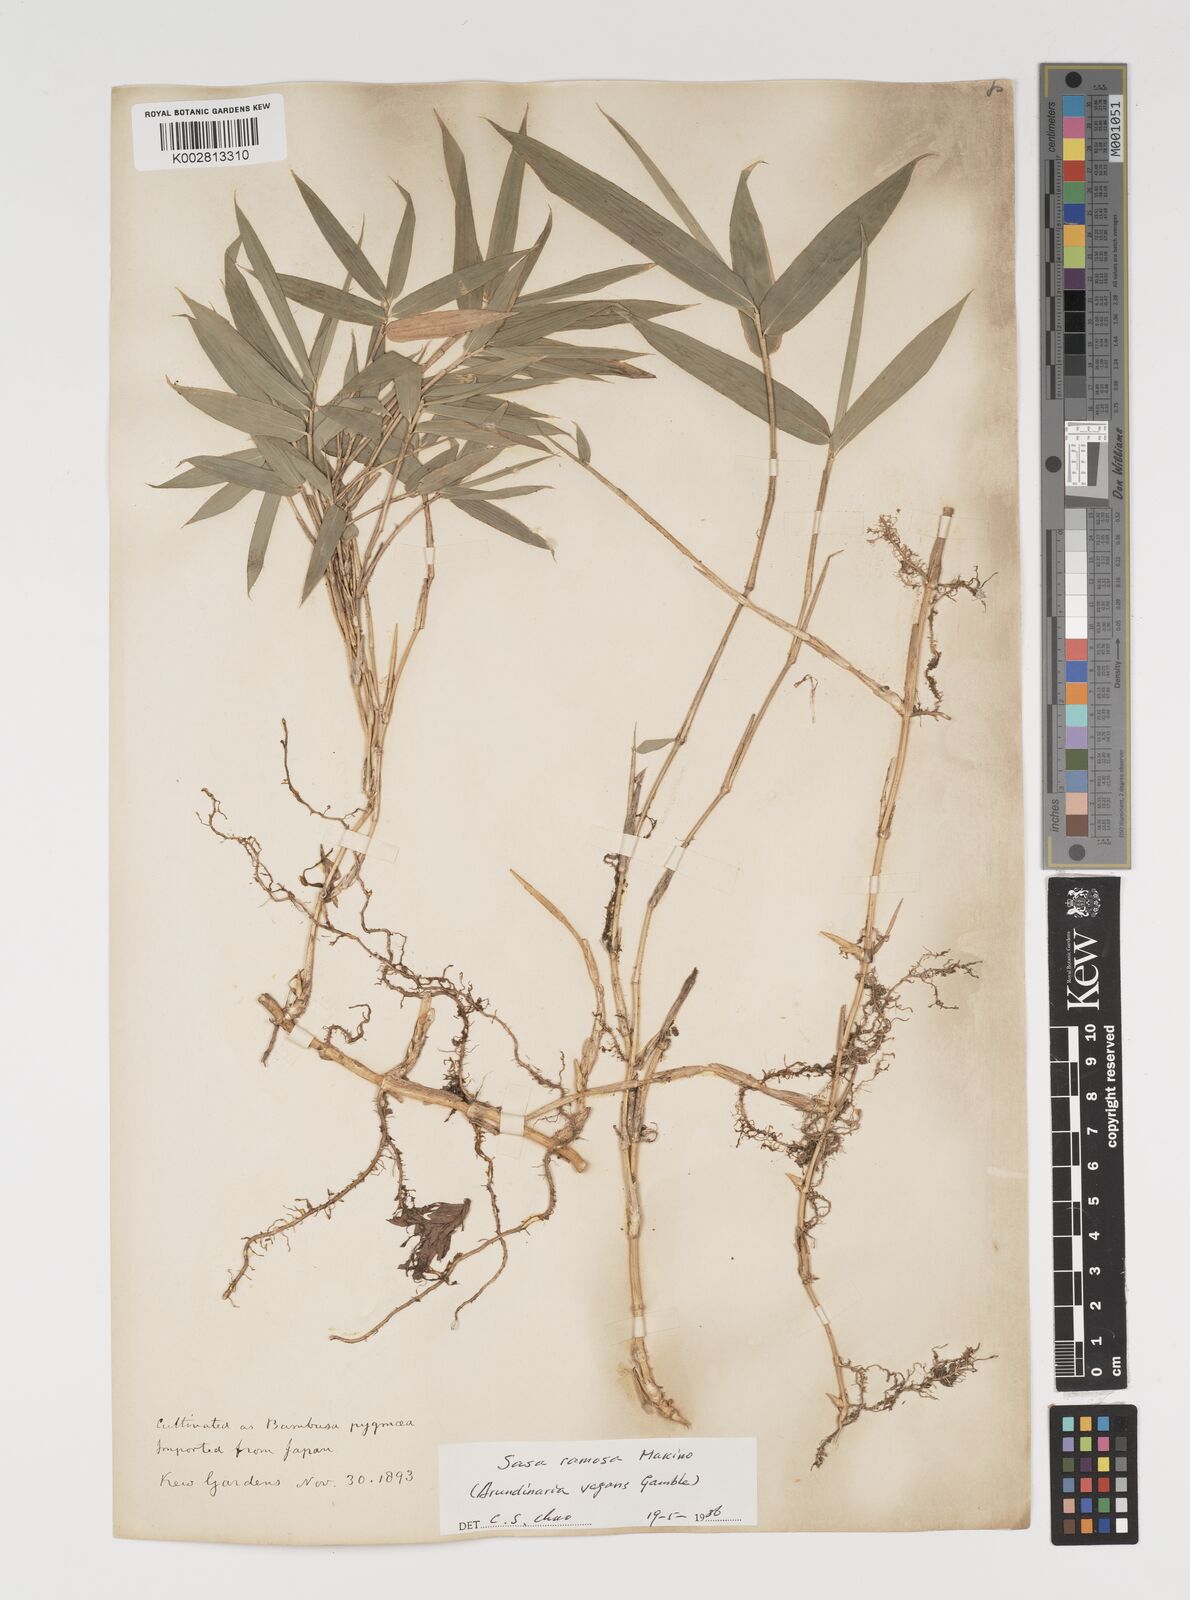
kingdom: Plantae
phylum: Tracheophyta
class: Liliopsida
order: Poales
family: Poaceae
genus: Sasaella
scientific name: Sasaella ramosa
